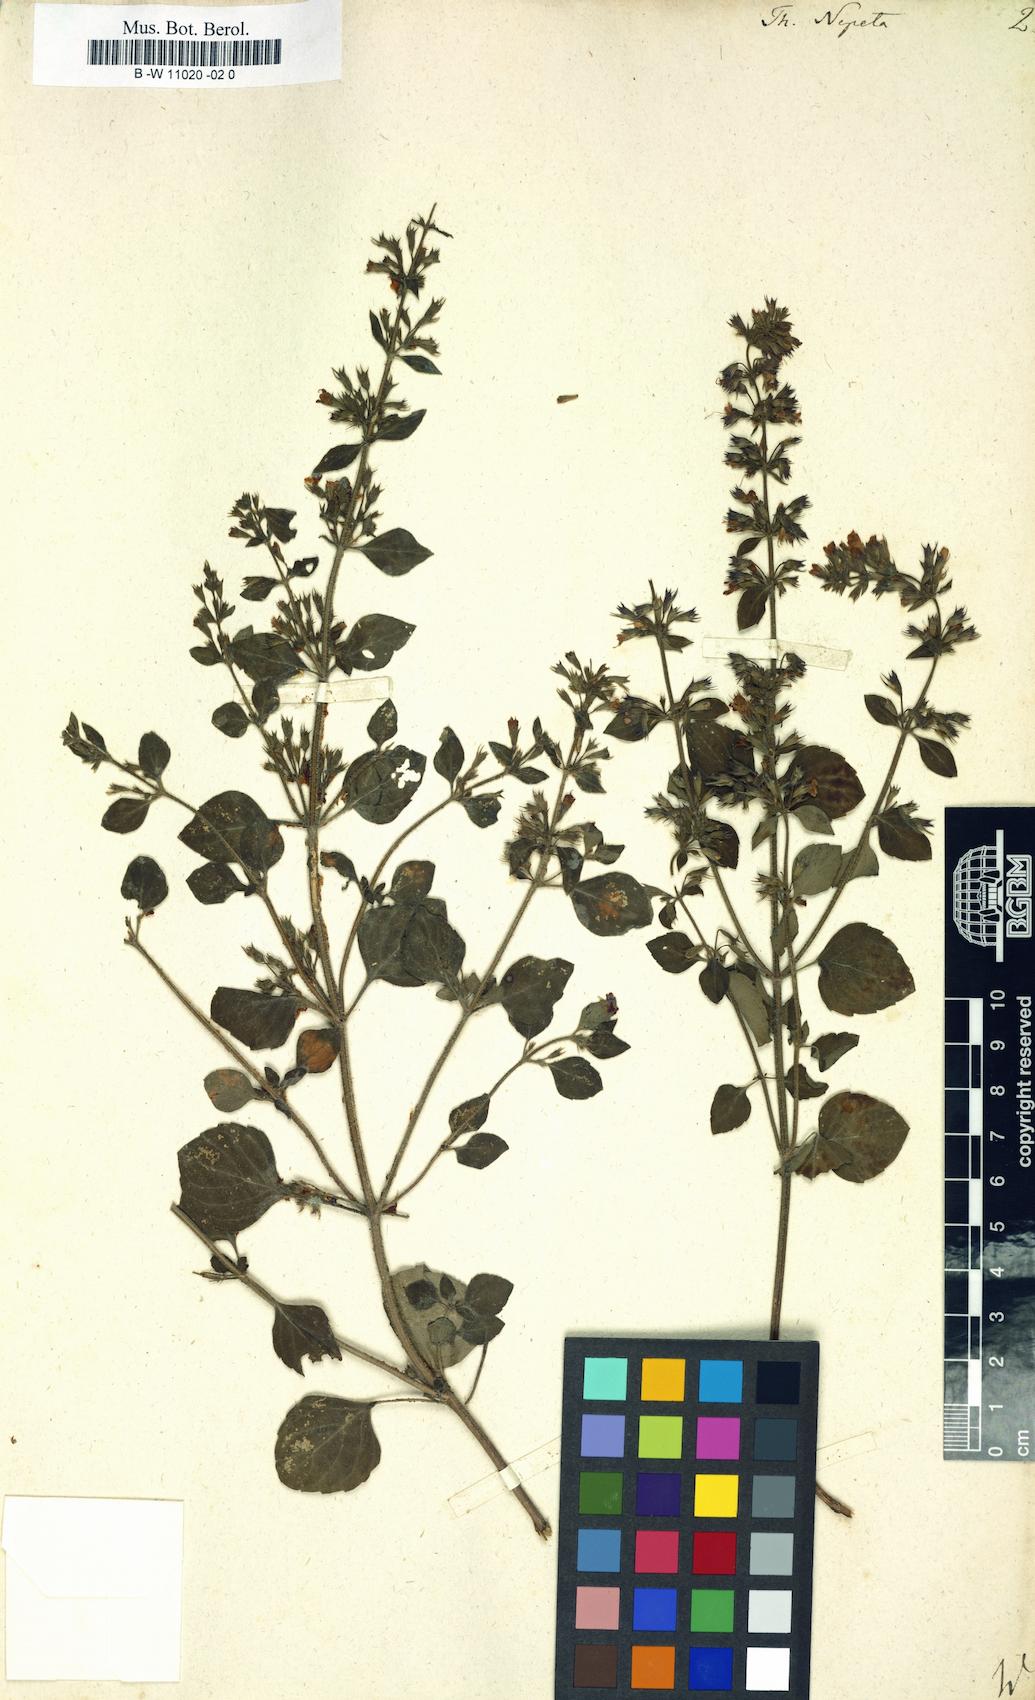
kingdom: Plantae
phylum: Tracheophyta
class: Magnoliopsida
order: Lamiales
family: Lamiaceae
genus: Clinopodium
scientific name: Clinopodium nepeta
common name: Lesser calamint
